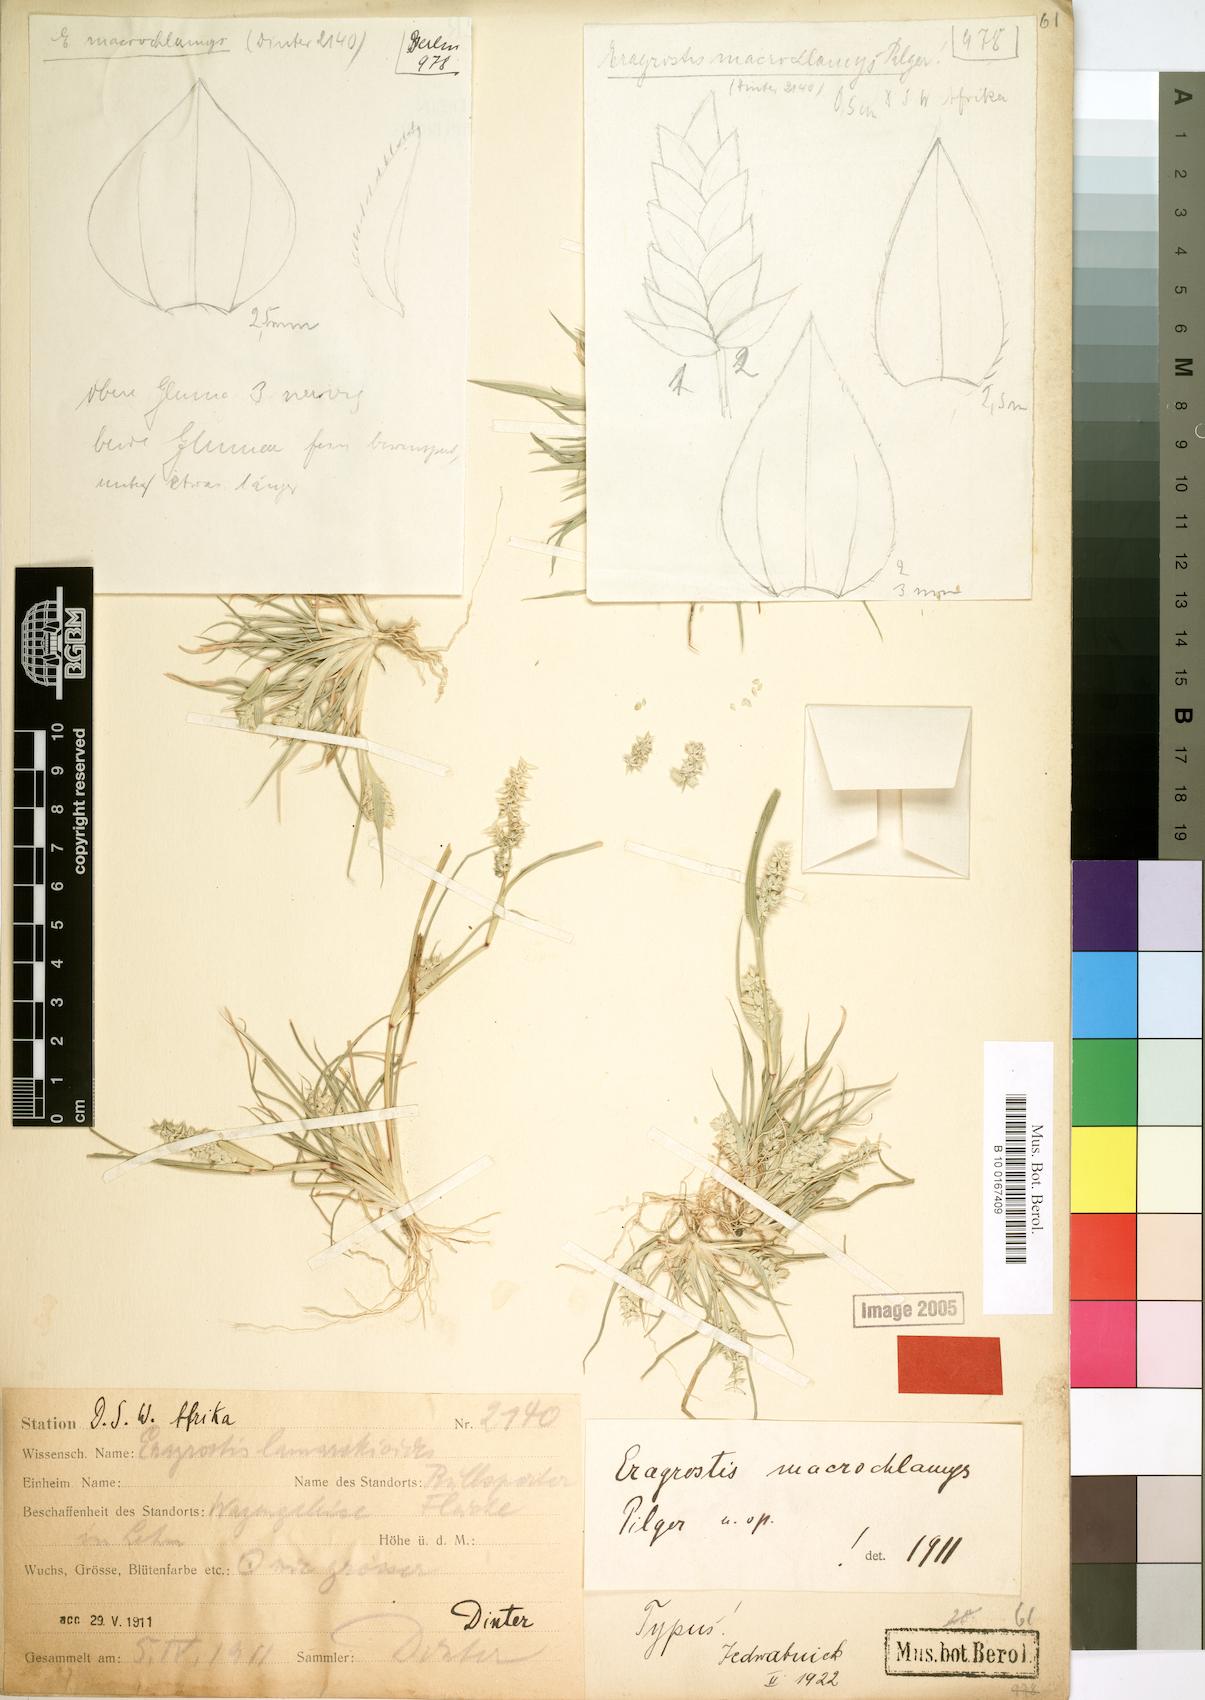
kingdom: Plantae
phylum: Tracheophyta
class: Liliopsida
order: Poales
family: Poaceae
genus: Eragrostis
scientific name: Eragrostis macrochlamys
